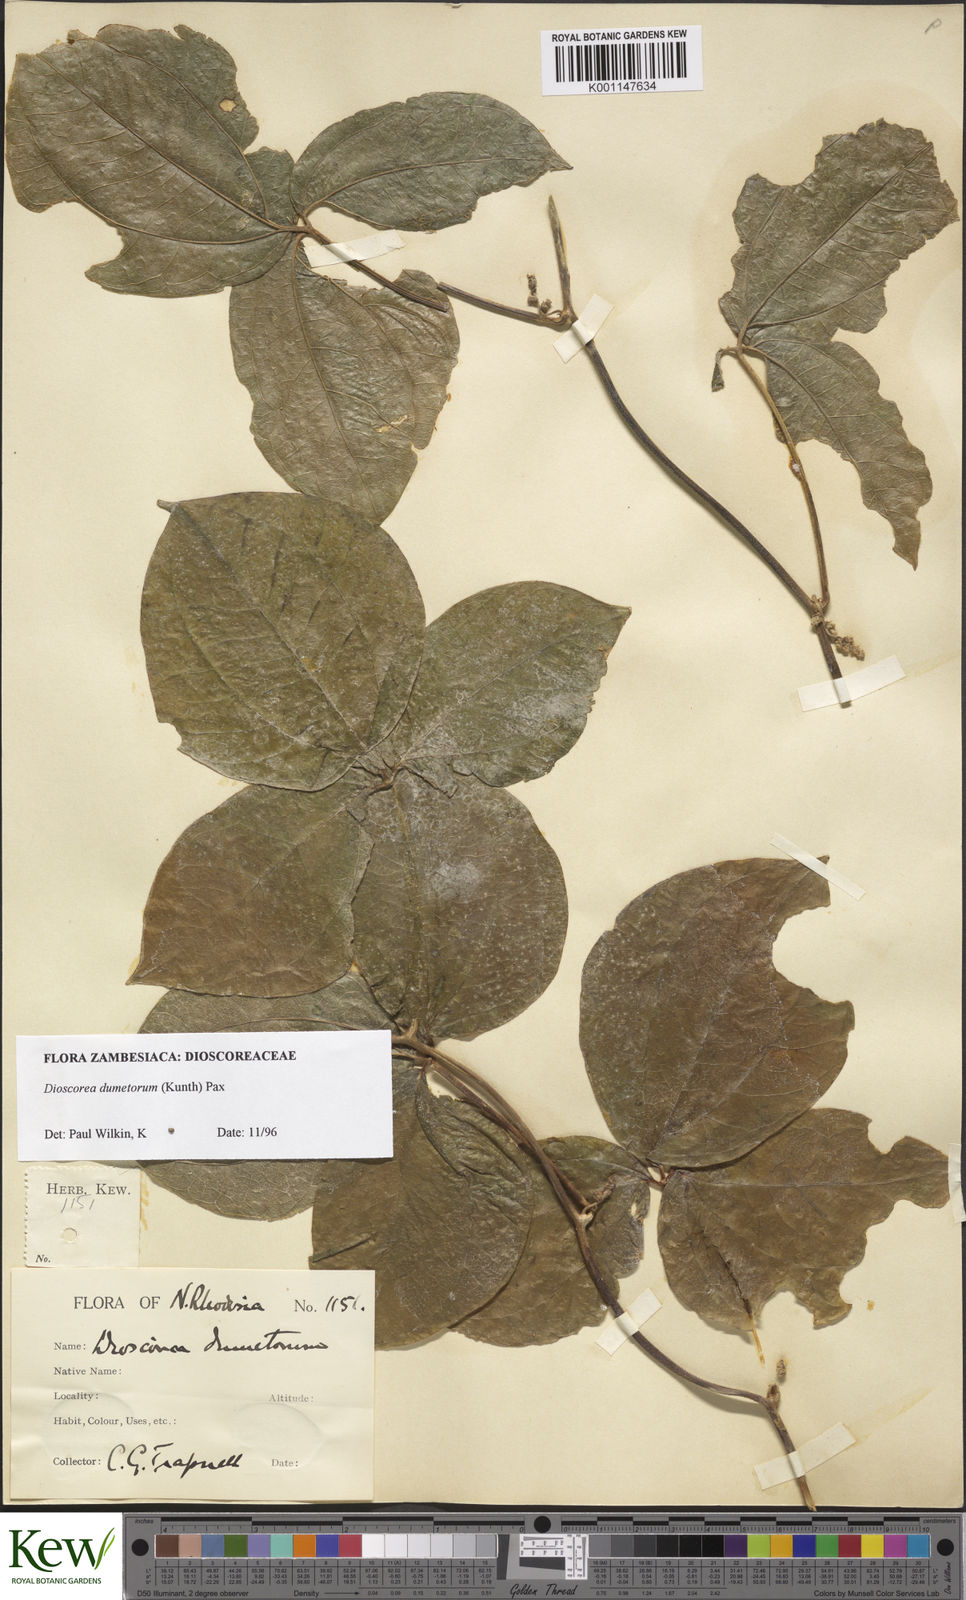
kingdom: Plantae
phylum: Tracheophyta
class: Liliopsida
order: Dioscoreales
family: Dioscoreaceae
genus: Dioscorea
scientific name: Dioscorea dumetorum
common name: African bitter yam
